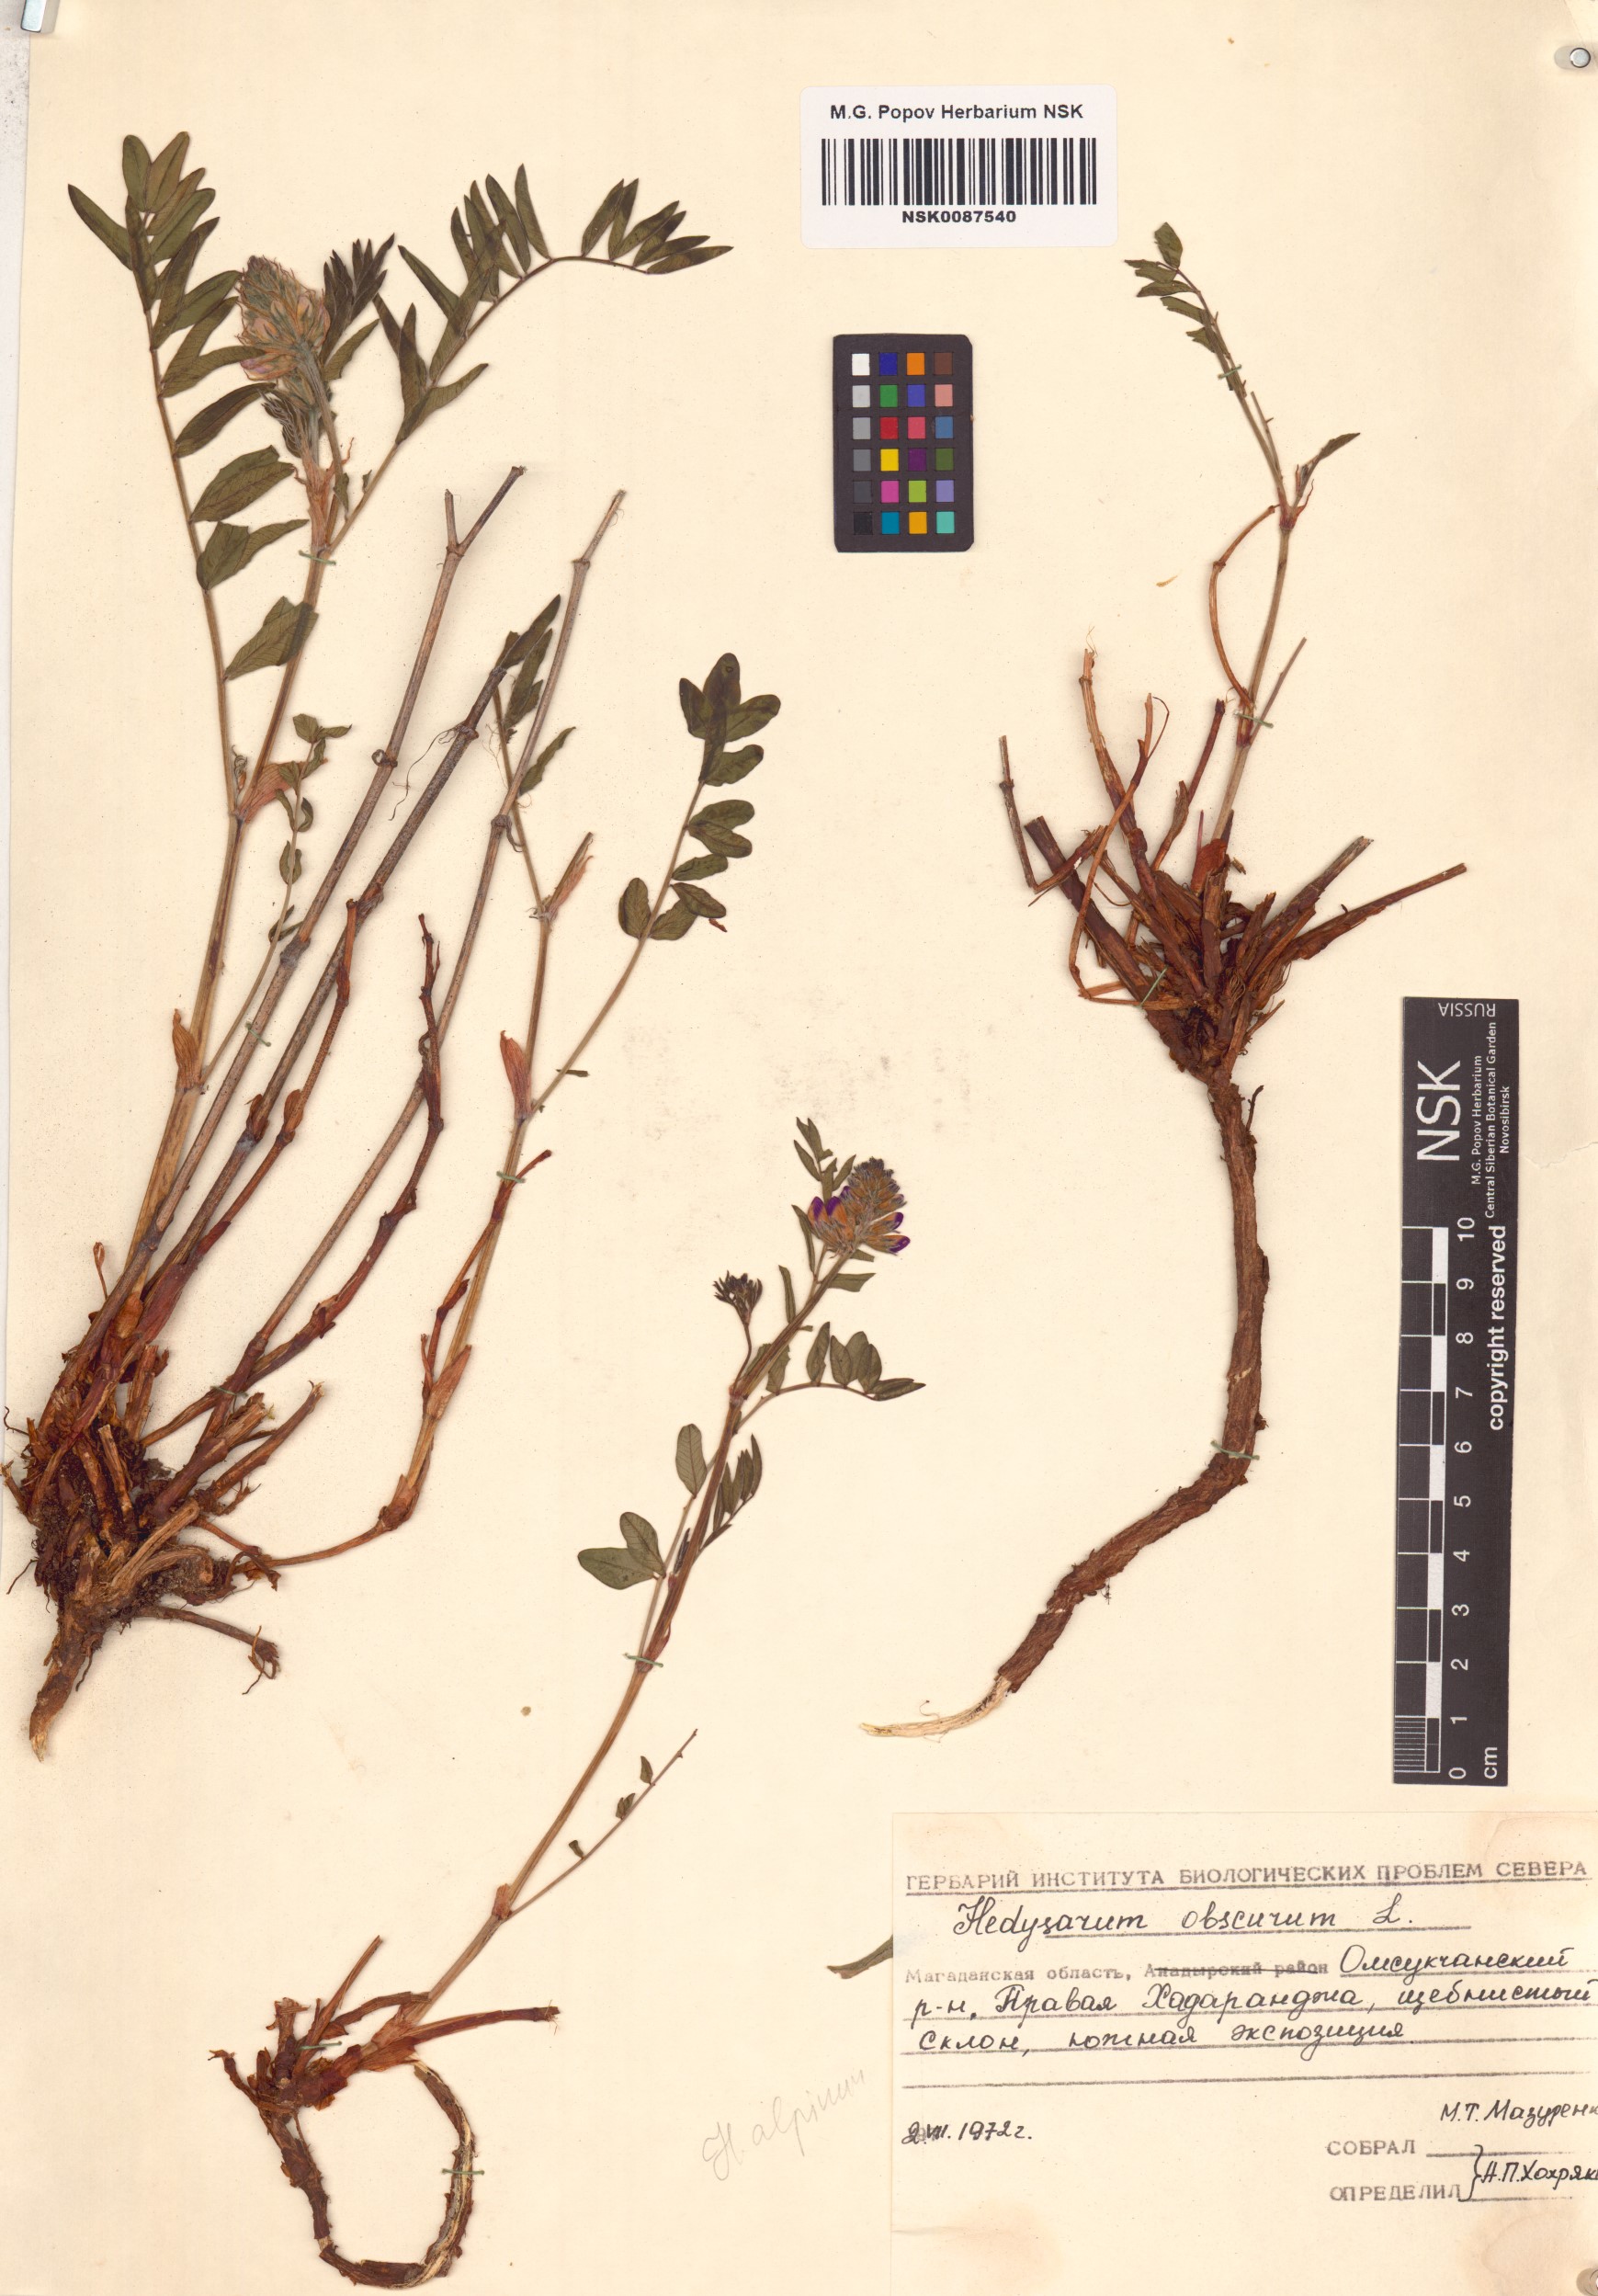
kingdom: Plantae
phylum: Tracheophyta
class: Magnoliopsida
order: Fabales
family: Fabaceae
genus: Hedysarum
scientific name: Hedysarum hedysaroides
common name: Alpine french-honeysuckle
